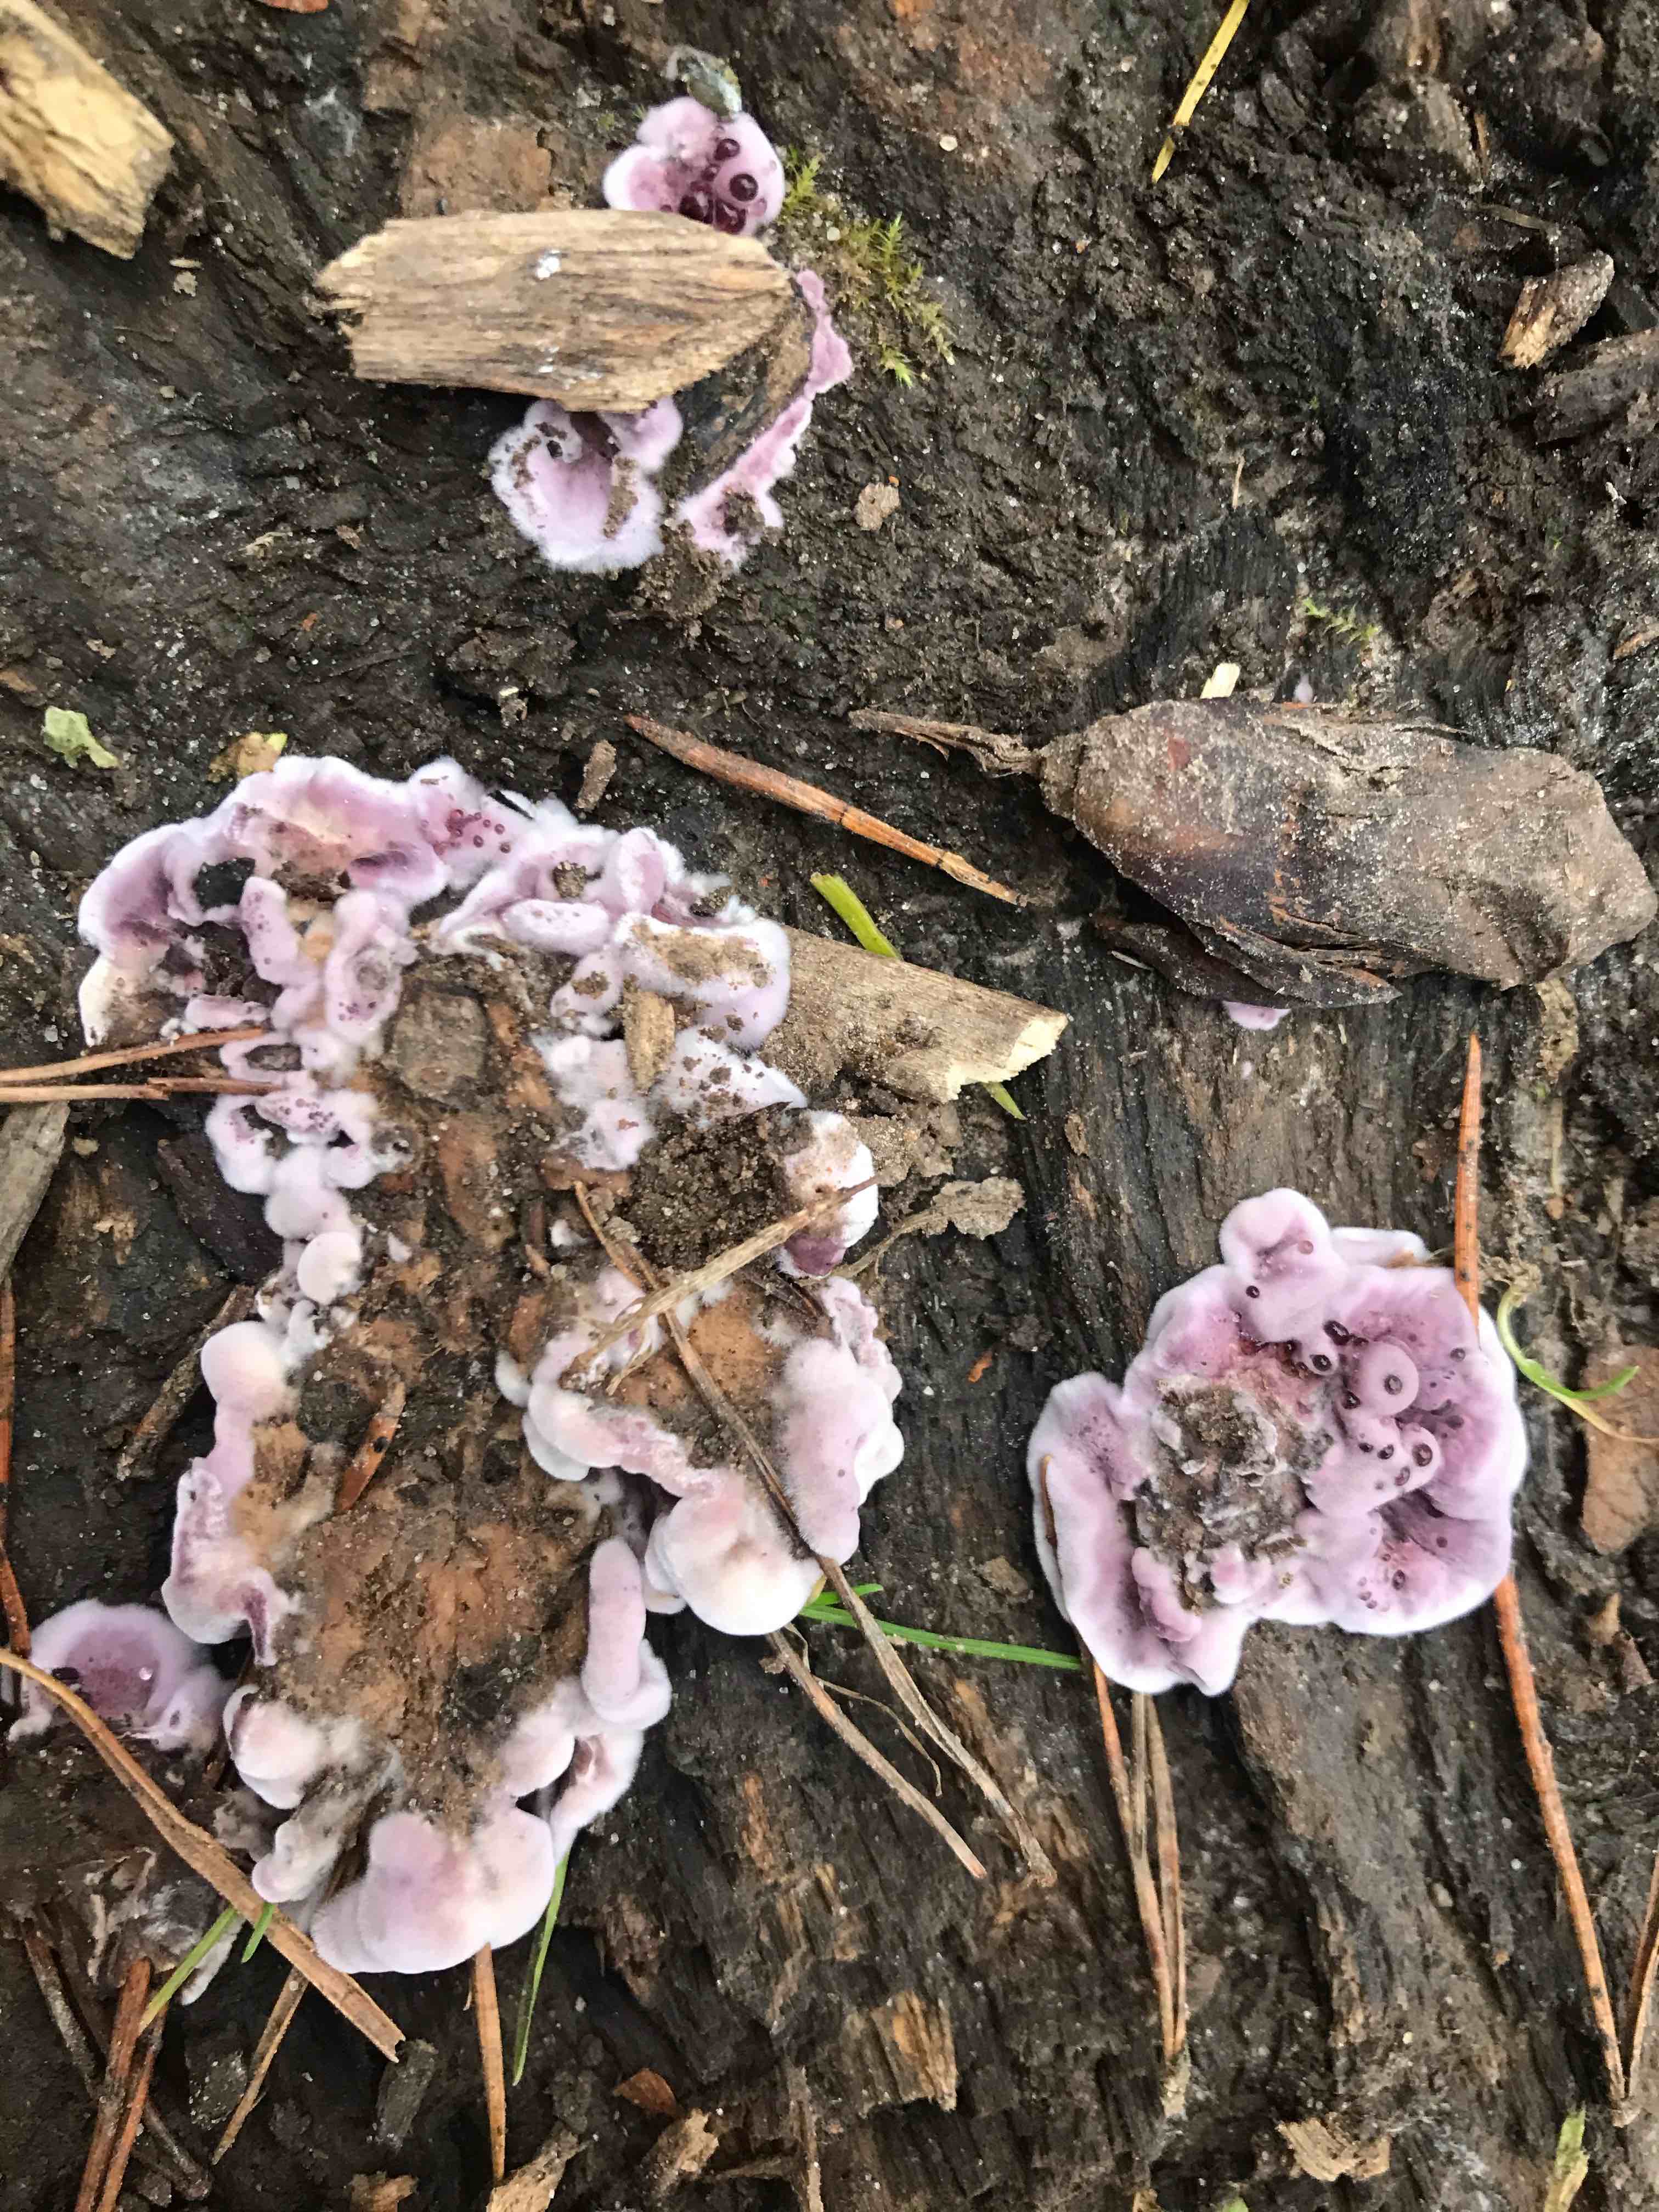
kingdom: Fungi
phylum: Basidiomycota
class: Agaricomycetes
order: Agaricales
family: Cyphellaceae
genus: Chondrostereum
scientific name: Chondrostereum purpureum
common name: purpurlædersvamp
